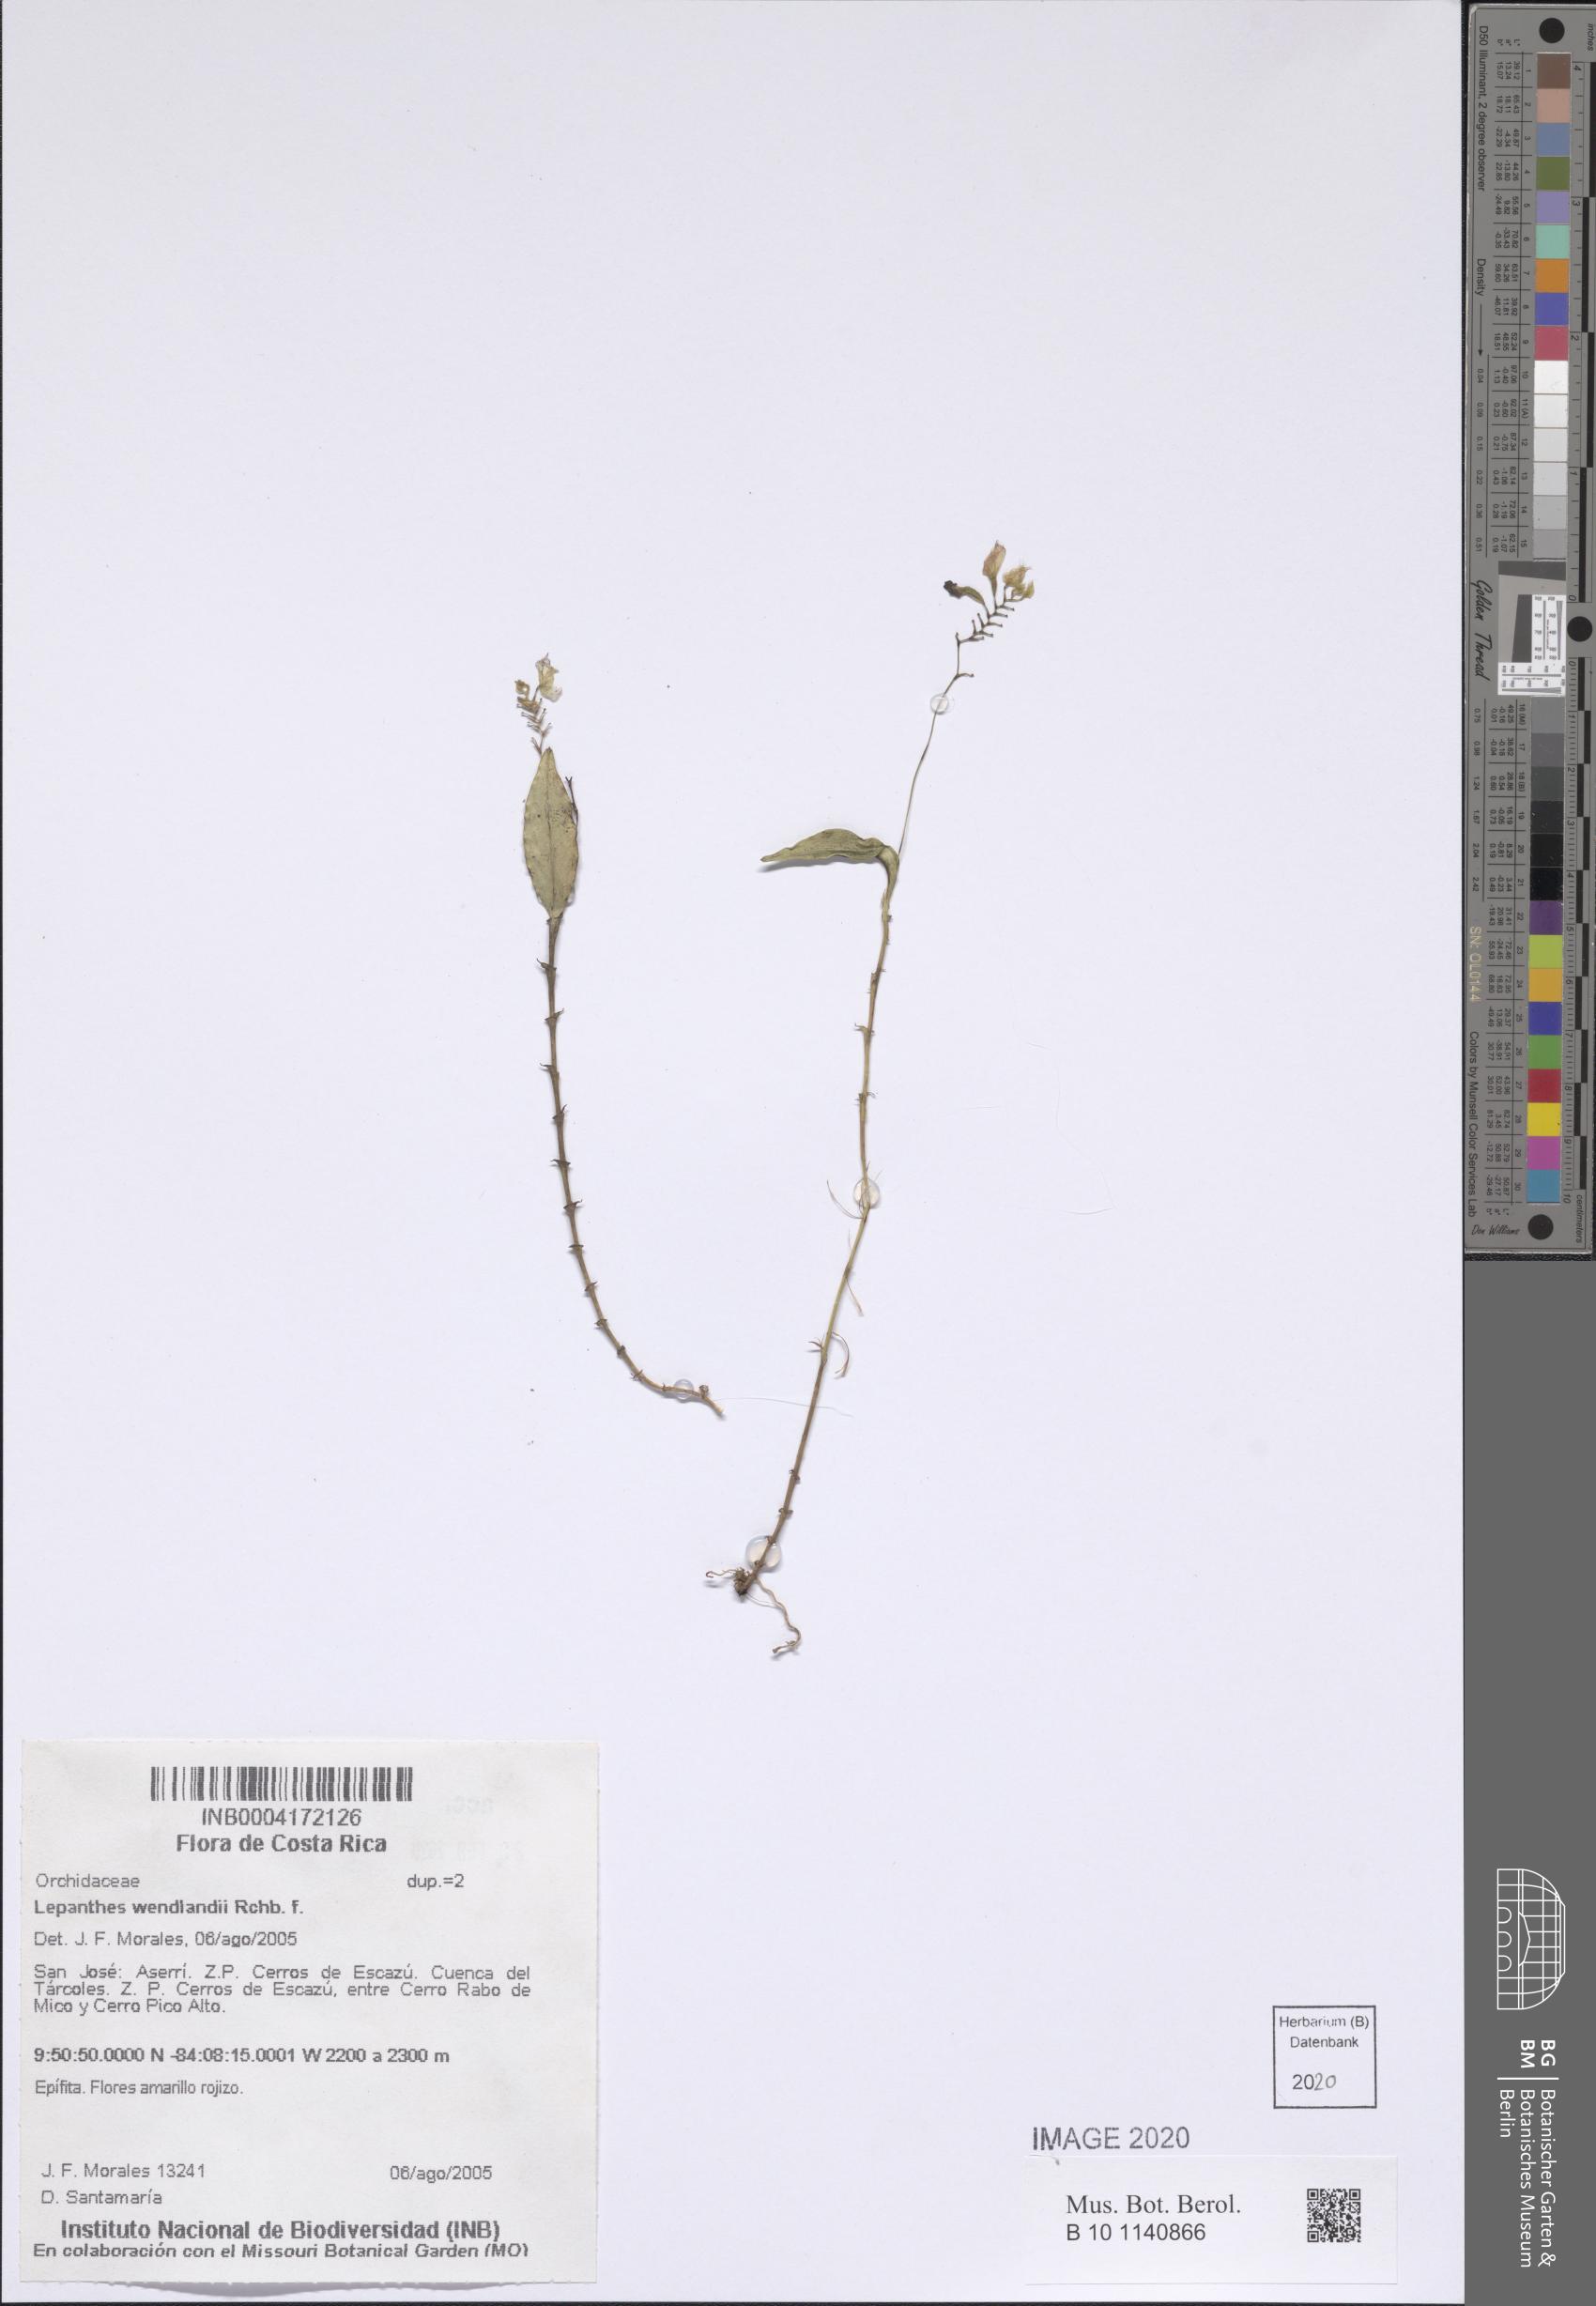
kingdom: Plantae
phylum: Tracheophyta
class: Liliopsida
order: Asparagales
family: Orchidaceae
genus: Lepanthes
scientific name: Lepanthes wendlandii
